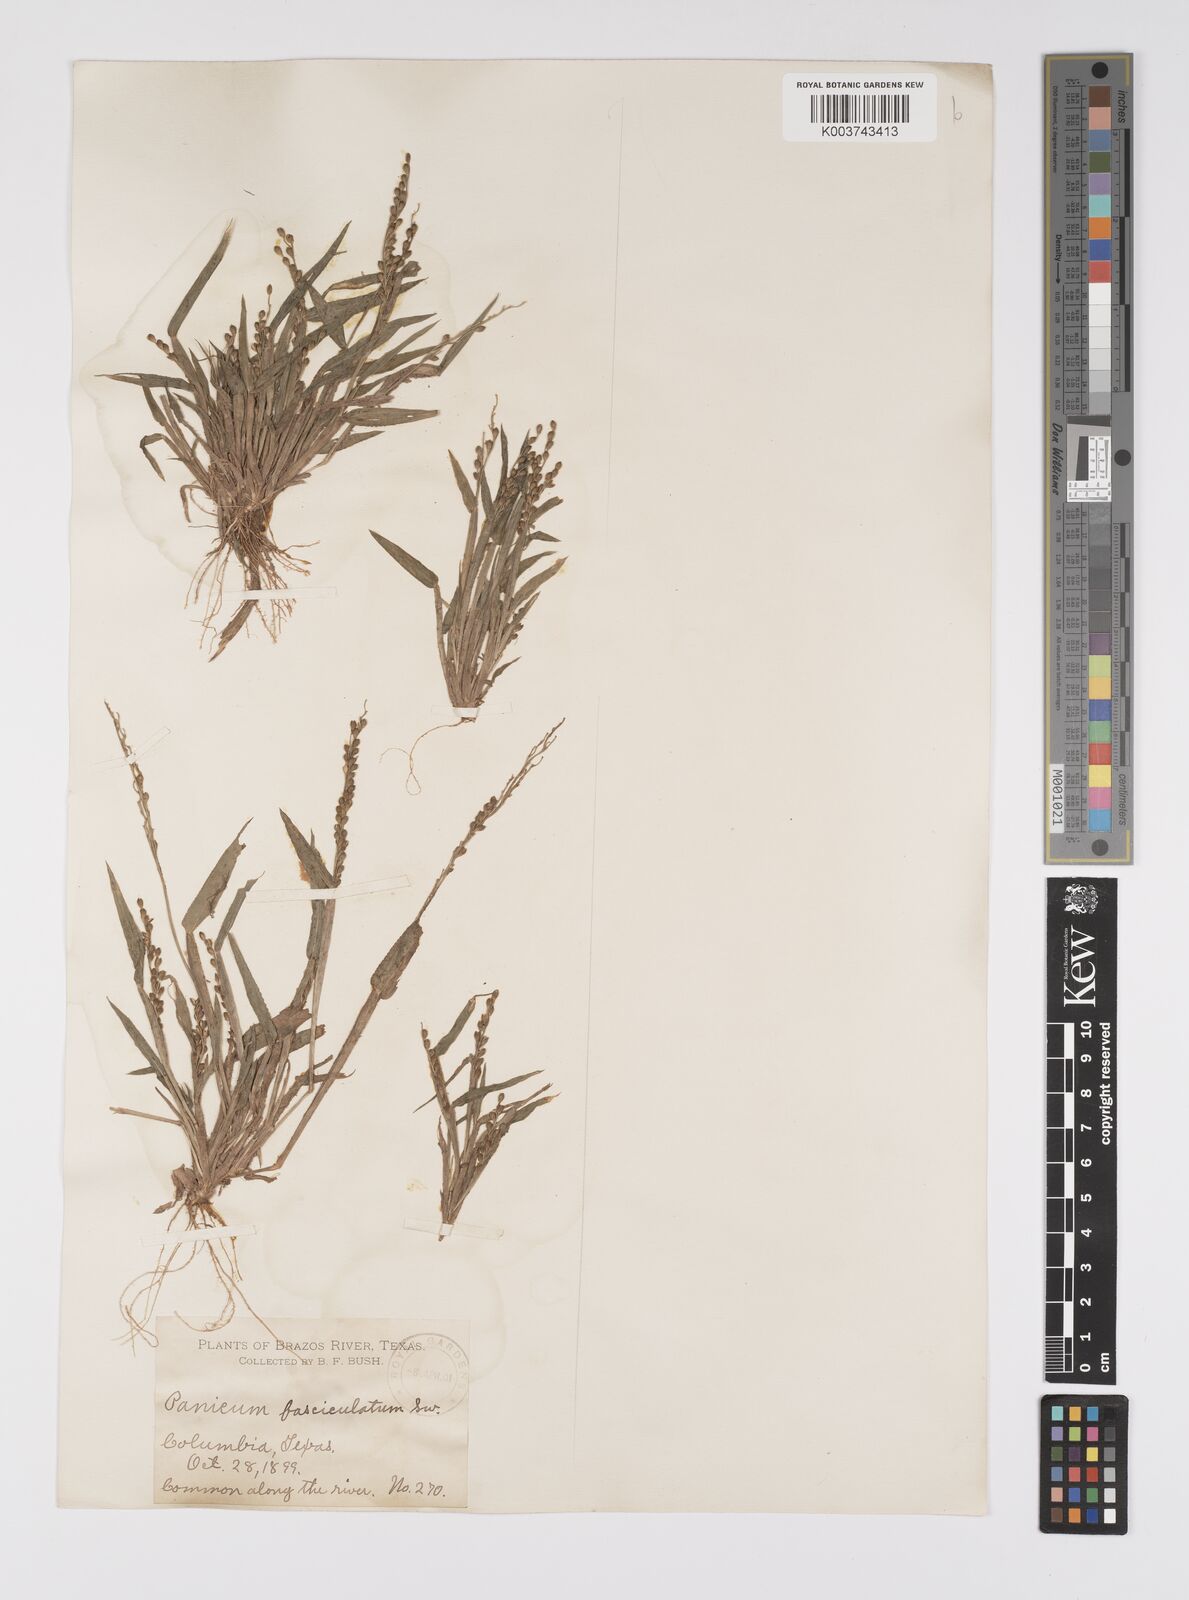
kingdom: Plantae
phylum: Tracheophyta
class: Liliopsida
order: Poales
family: Poaceae
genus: Urochloa
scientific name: Urochloa fusca
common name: Browntop signal grass
